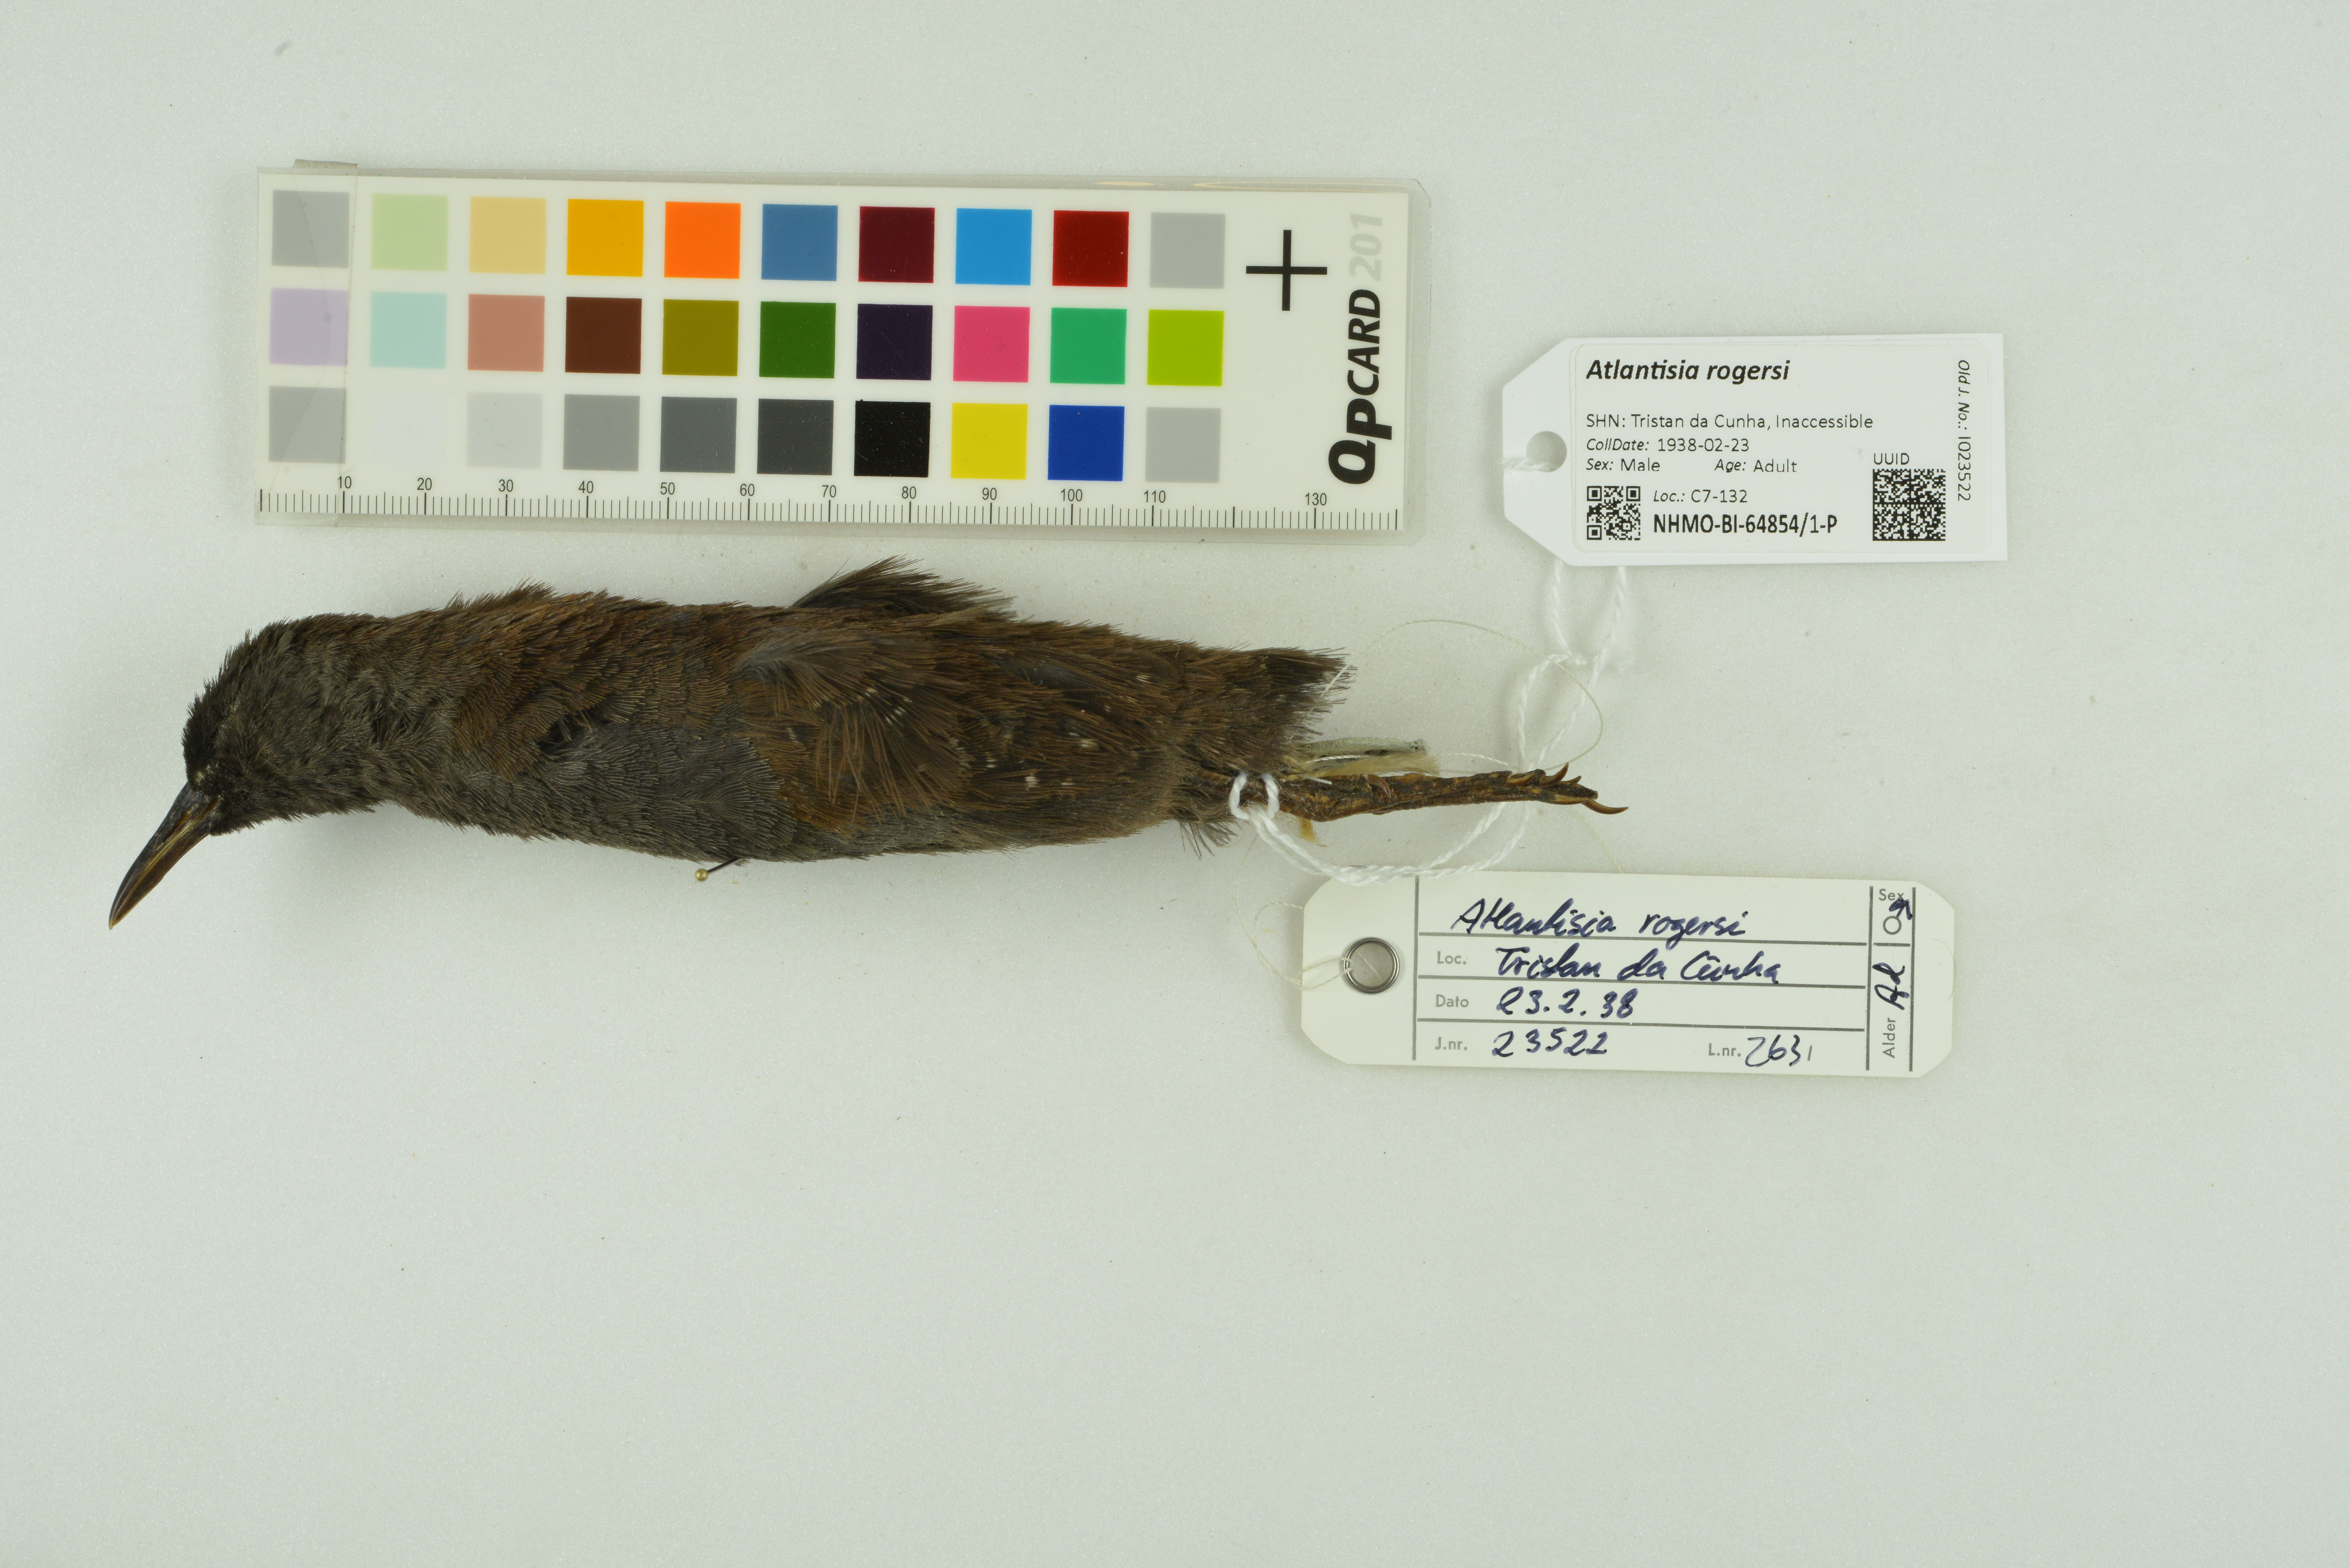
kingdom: Animalia
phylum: Chordata
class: Aves
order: Gruiformes
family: Rallidae
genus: Atlantisia
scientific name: Atlantisia rogersi
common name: Inaccessible island rail
